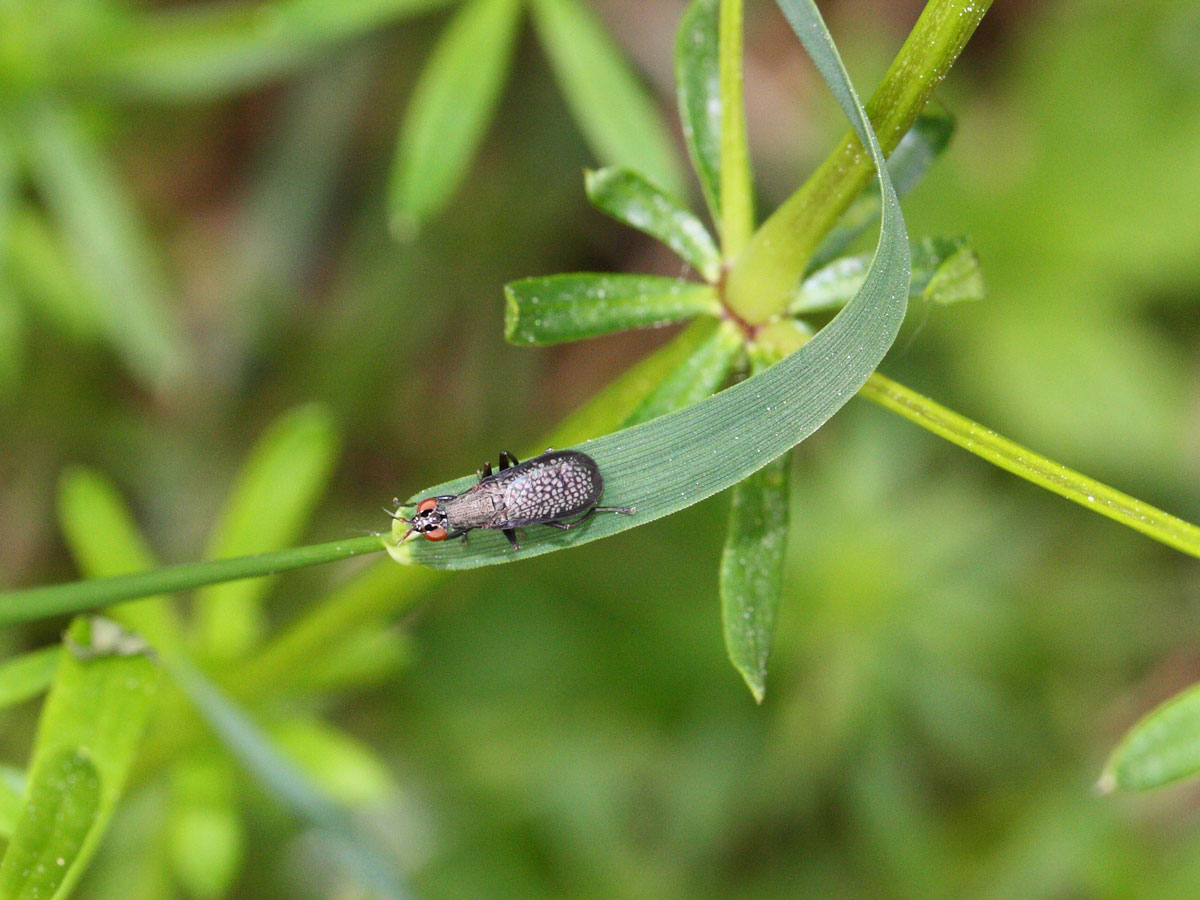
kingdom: Animalia
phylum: Arthropoda
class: Insecta
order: Diptera
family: Sciomyzidae
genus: Coremacera
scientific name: Coremacera marginata
